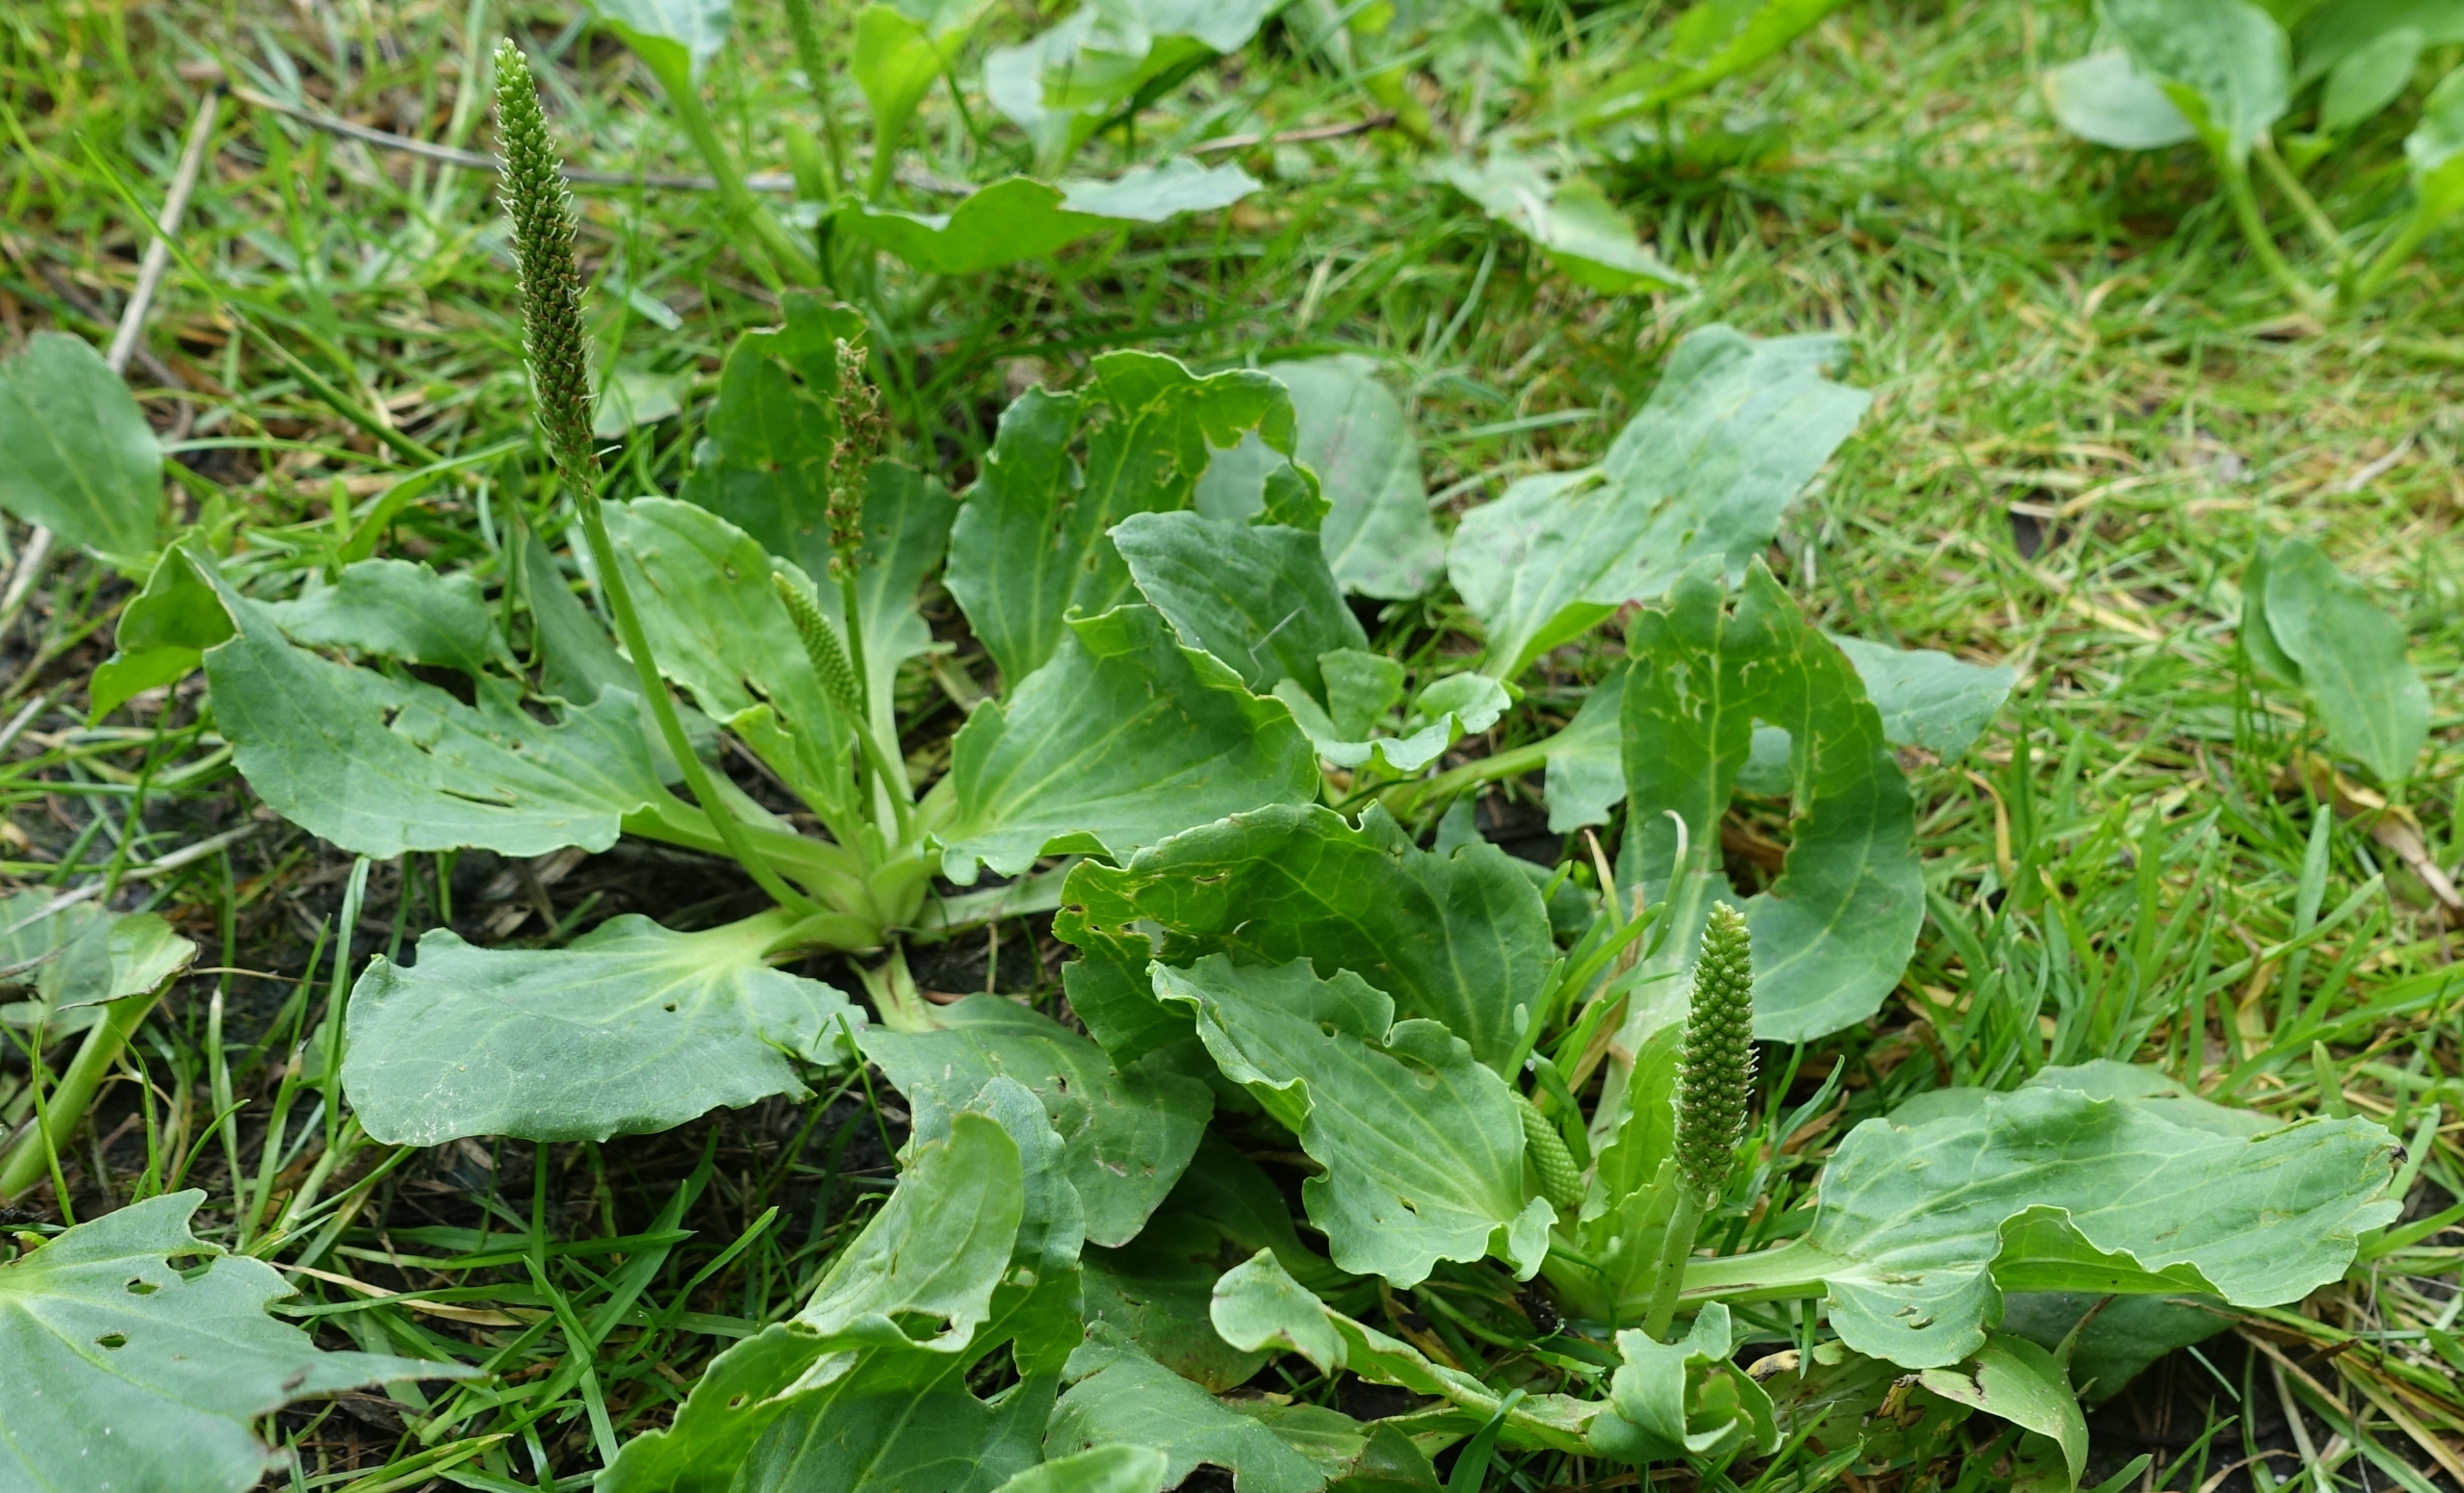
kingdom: Plantae
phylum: Tracheophyta
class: Magnoliopsida
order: Lamiales
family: Plantaginaceae
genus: Plantago
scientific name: Plantago major
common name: Glat vejbred
